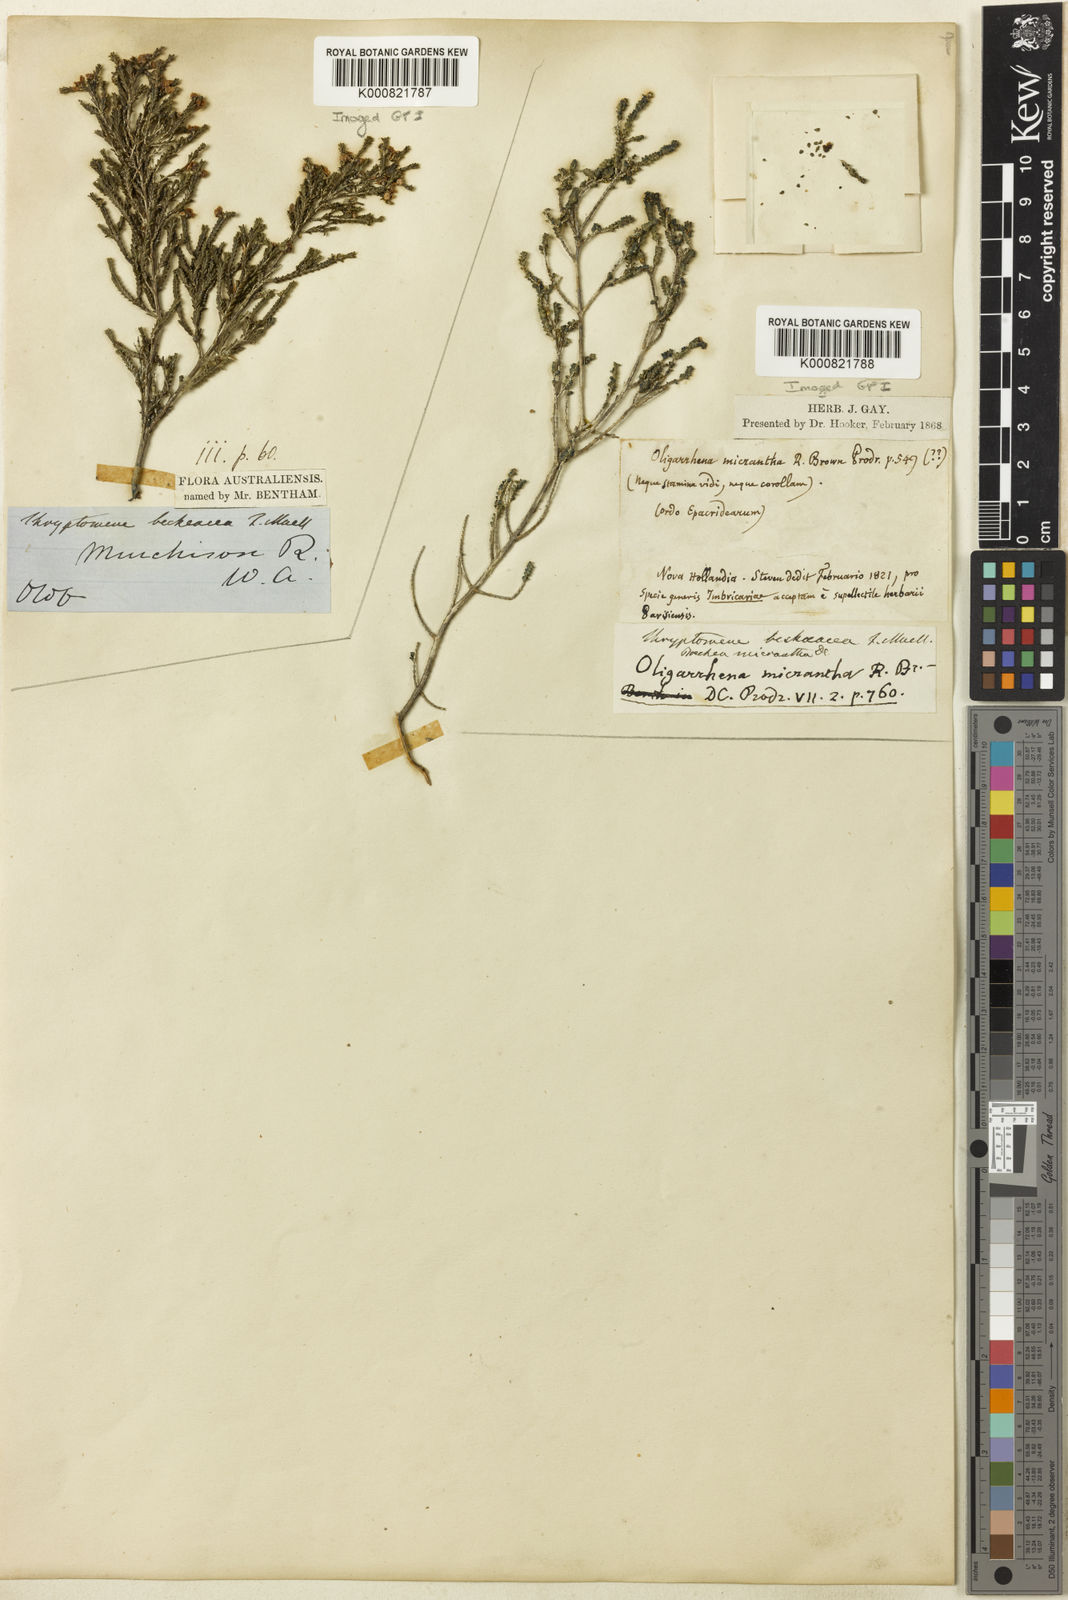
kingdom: Plantae
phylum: Tracheophyta
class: Magnoliopsida
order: Myrtales
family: Myrtaceae
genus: Thryptomene
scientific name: Thryptomene baeckeacea
